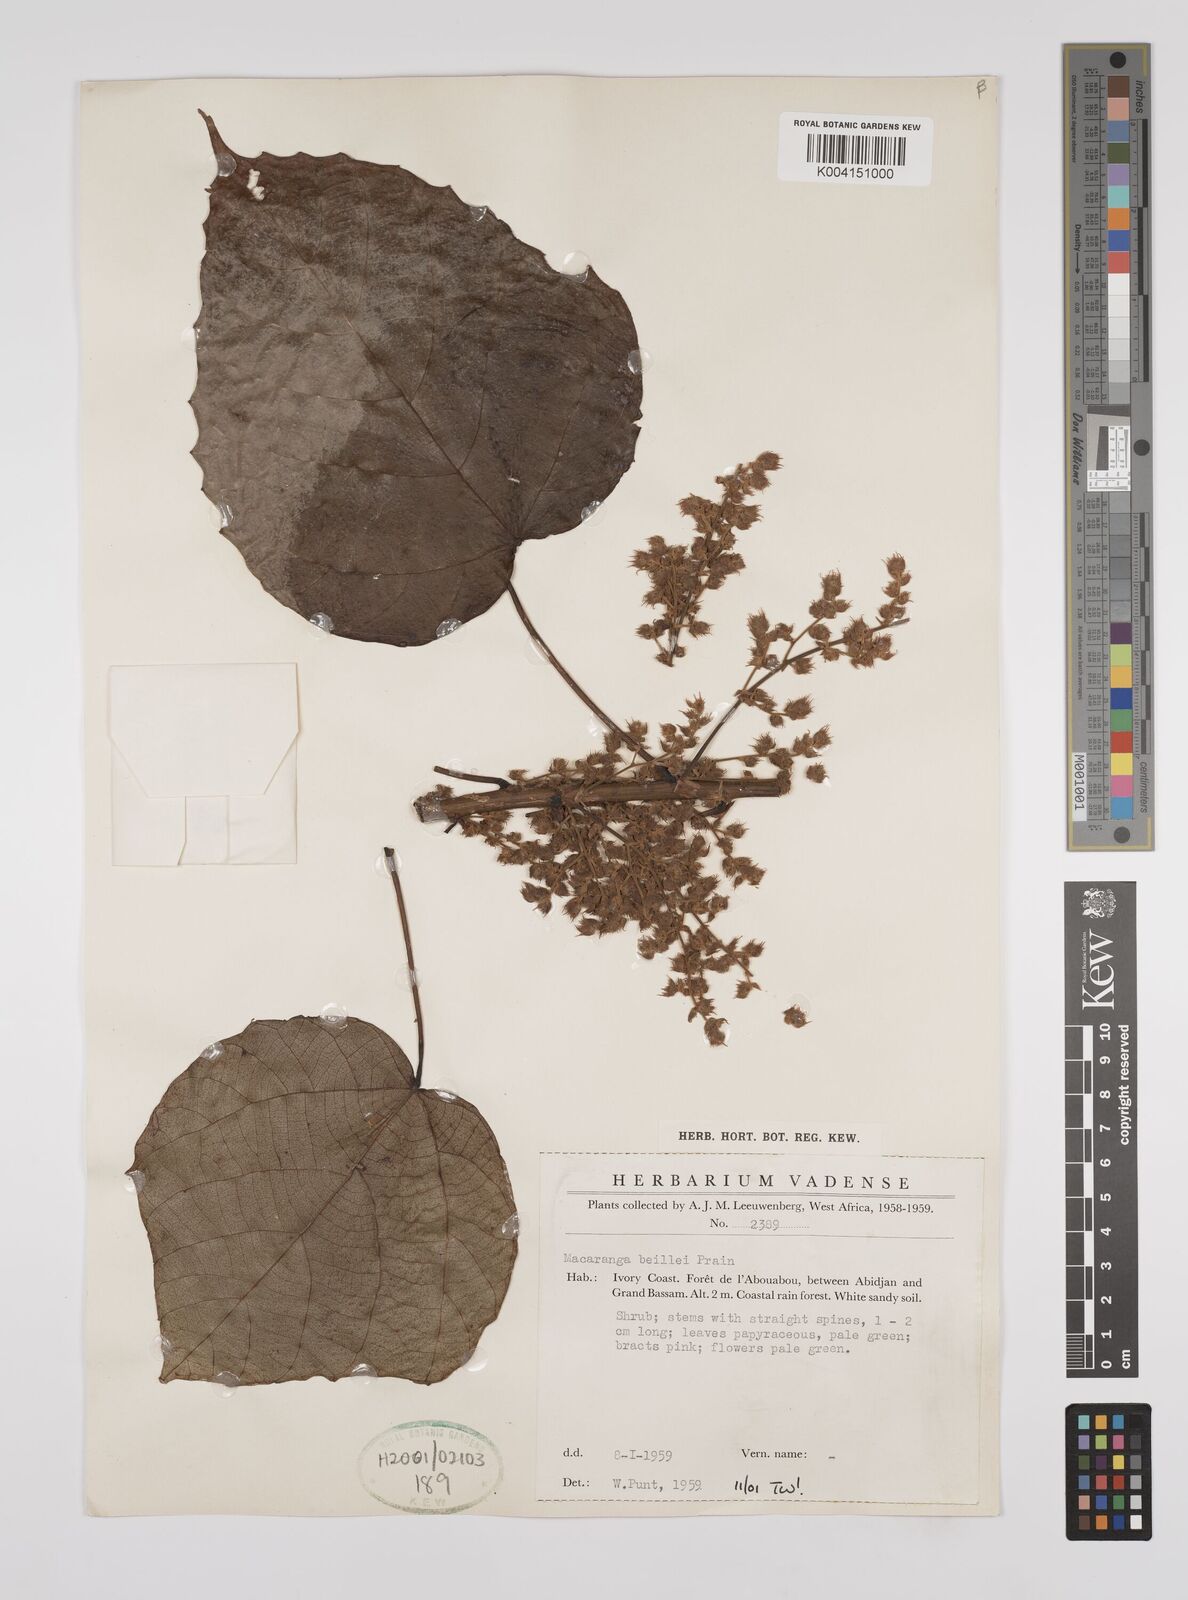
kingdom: Plantae
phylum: Tracheophyta
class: Magnoliopsida
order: Malpighiales
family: Euphorbiaceae
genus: Macaranga
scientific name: Macaranga beillei
